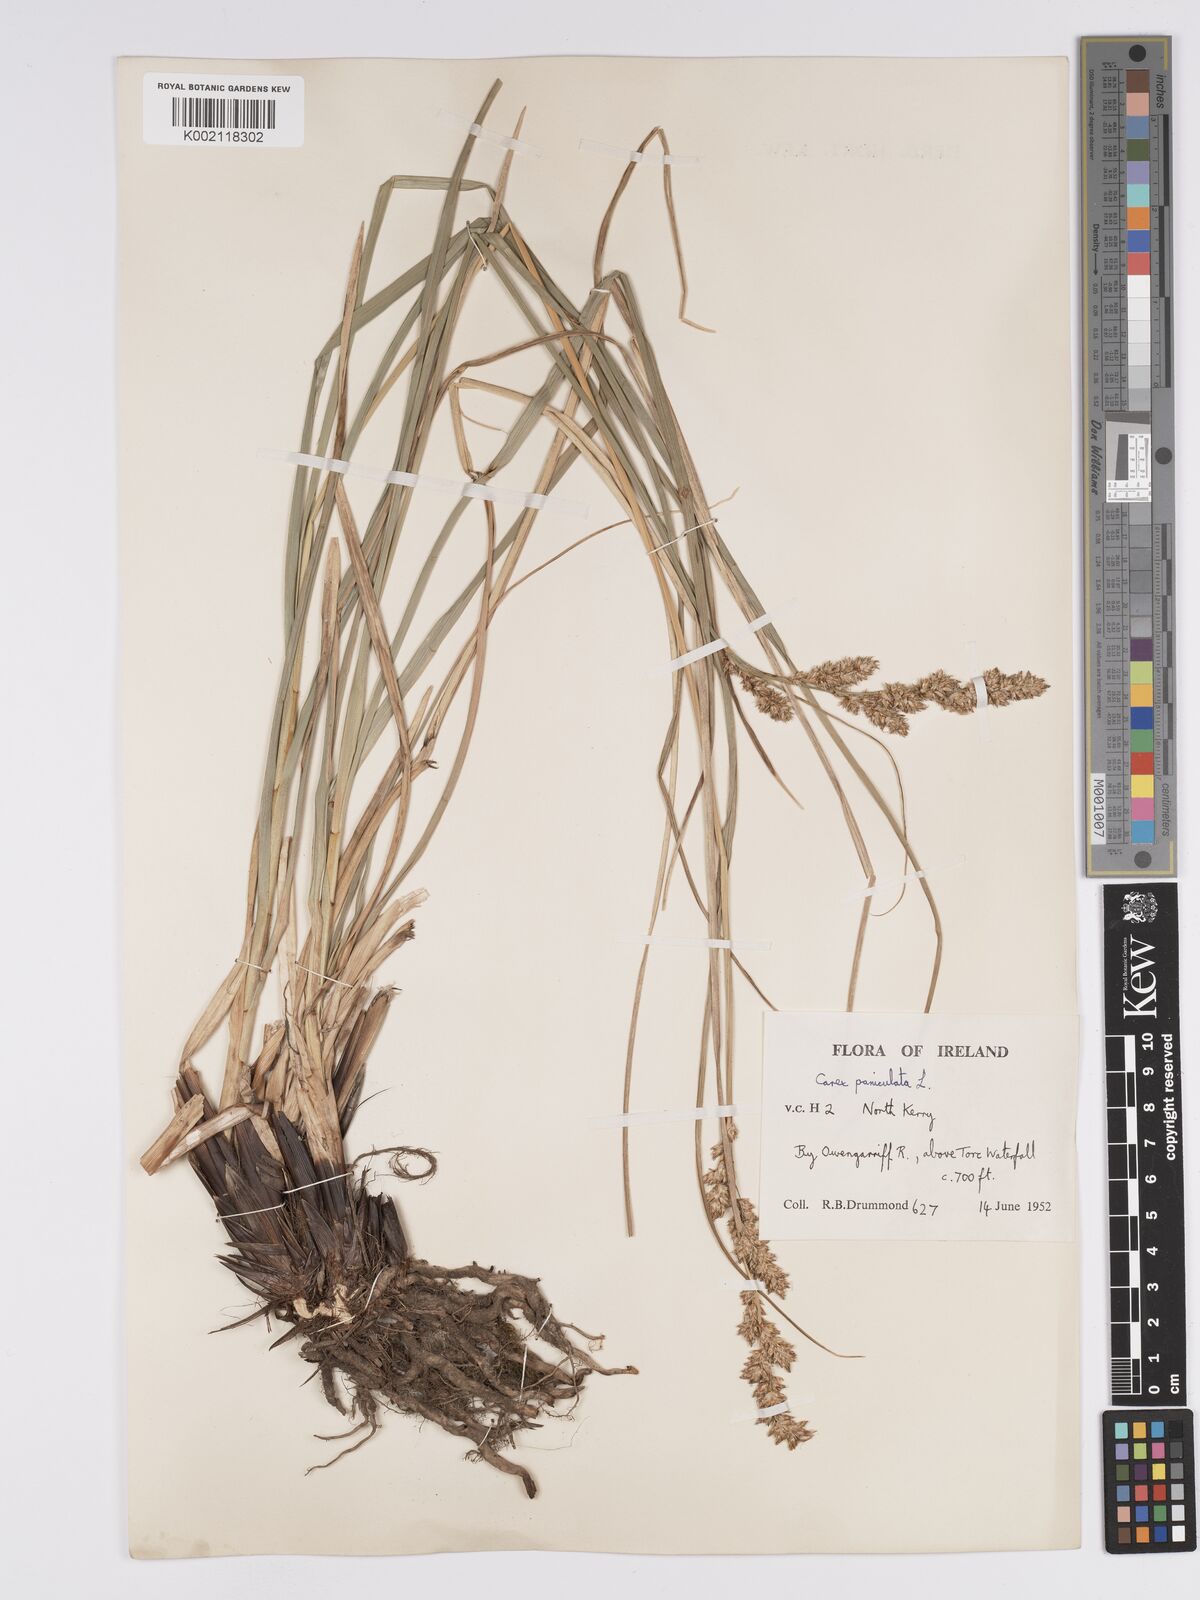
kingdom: Plantae
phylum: Tracheophyta
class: Liliopsida
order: Poales
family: Cyperaceae
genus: Carex
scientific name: Carex paniculata
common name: Greater tussock-sedge
